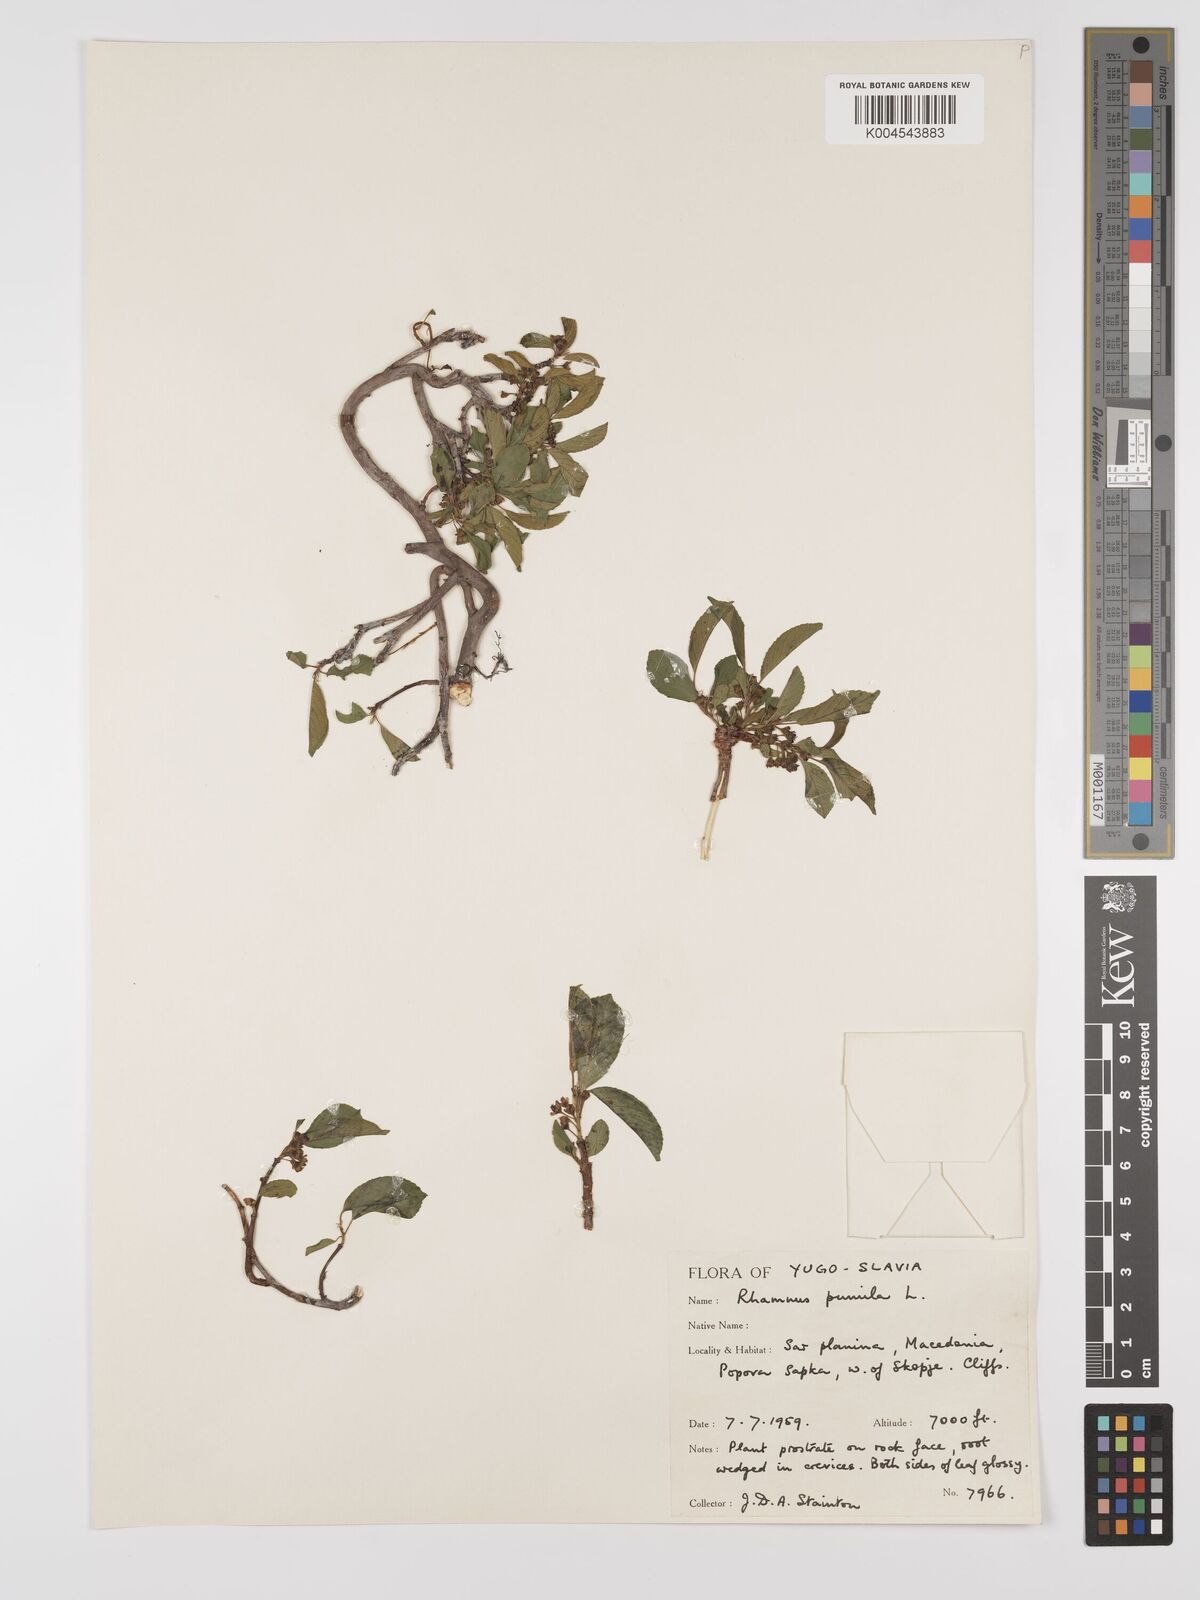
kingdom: Plantae
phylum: Tracheophyta
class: Magnoliopsida
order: Rosales
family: Rhamnaceae
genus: Rhamnus
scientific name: Rhamnus
